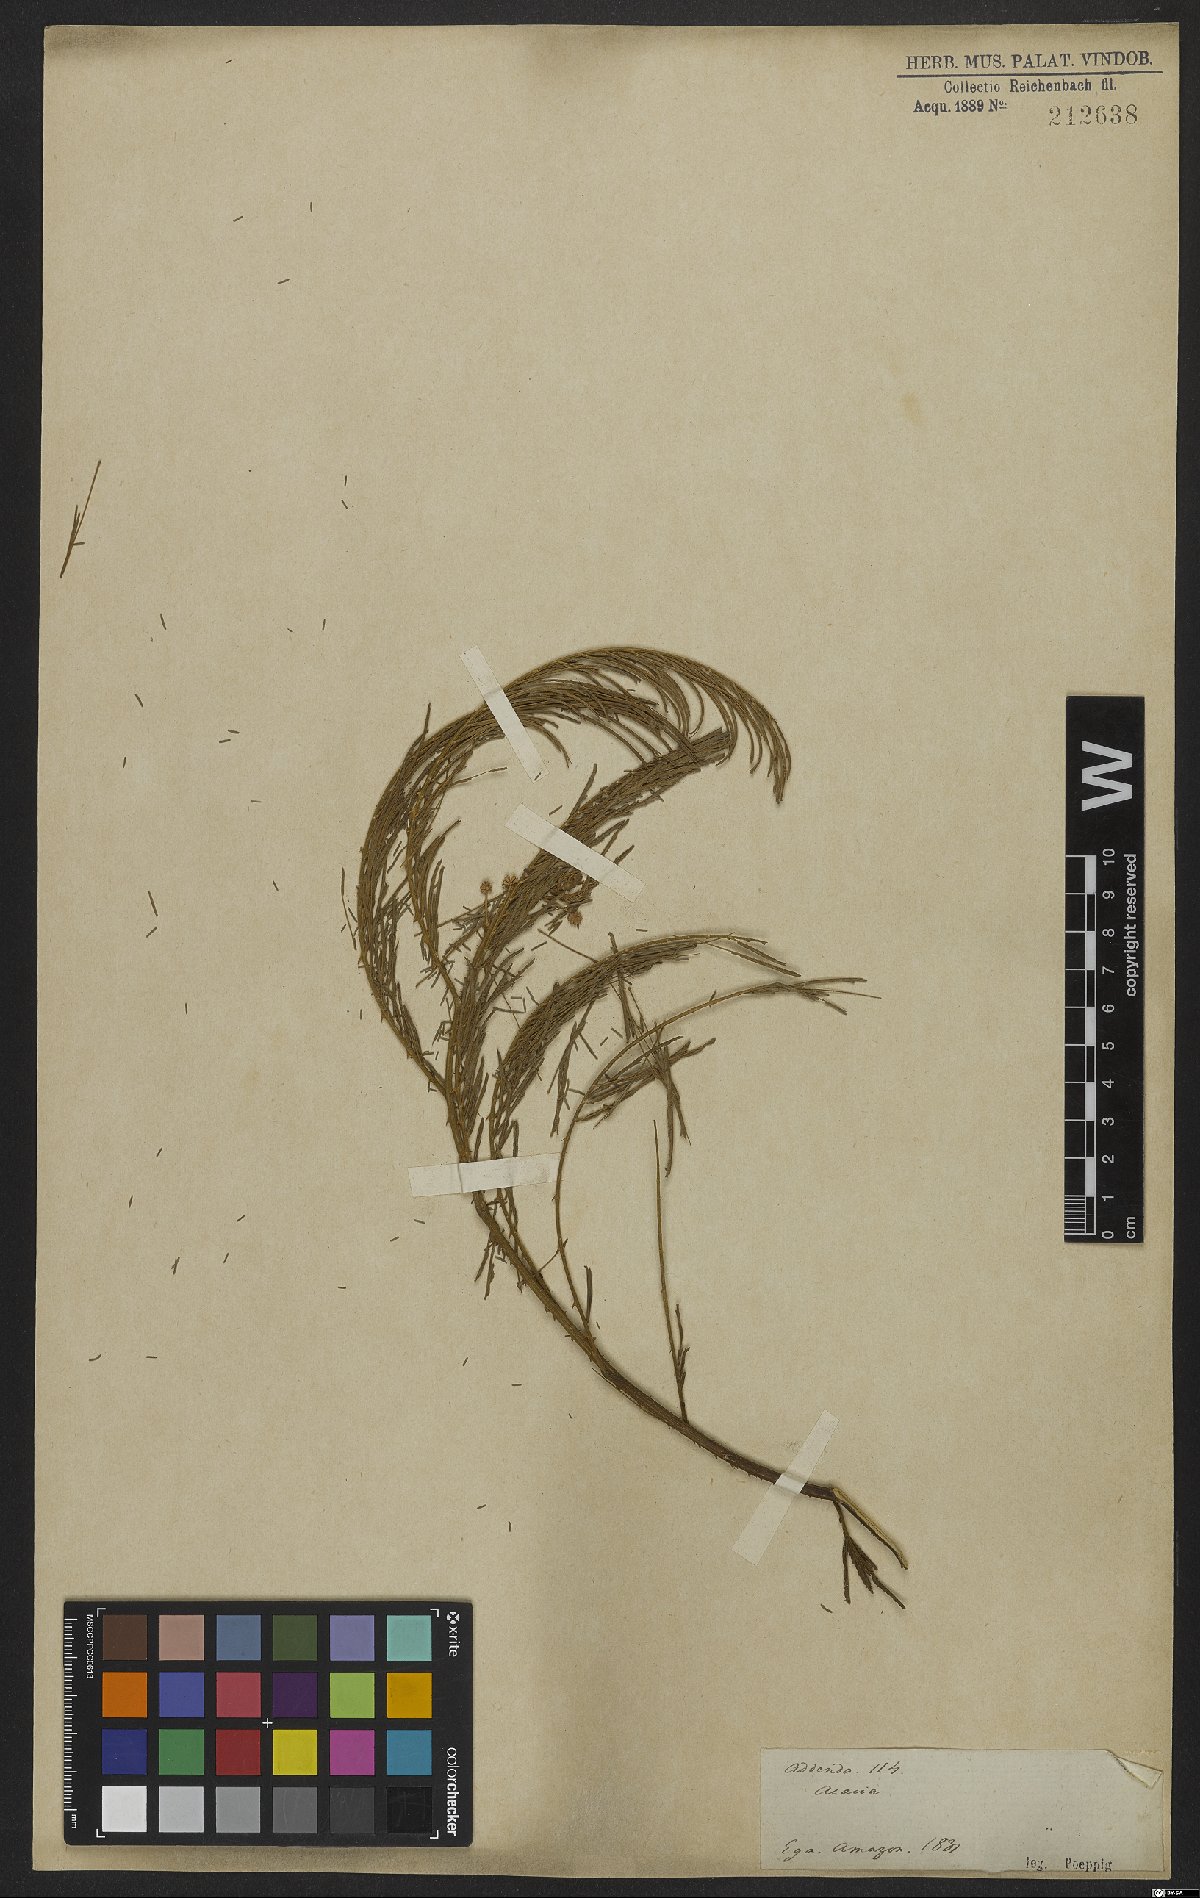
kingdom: Plantae
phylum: Tracheophyta
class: Magnoliopsida
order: Fabales
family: Fabaceae
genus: Senegalia
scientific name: Senegalia paniculata
